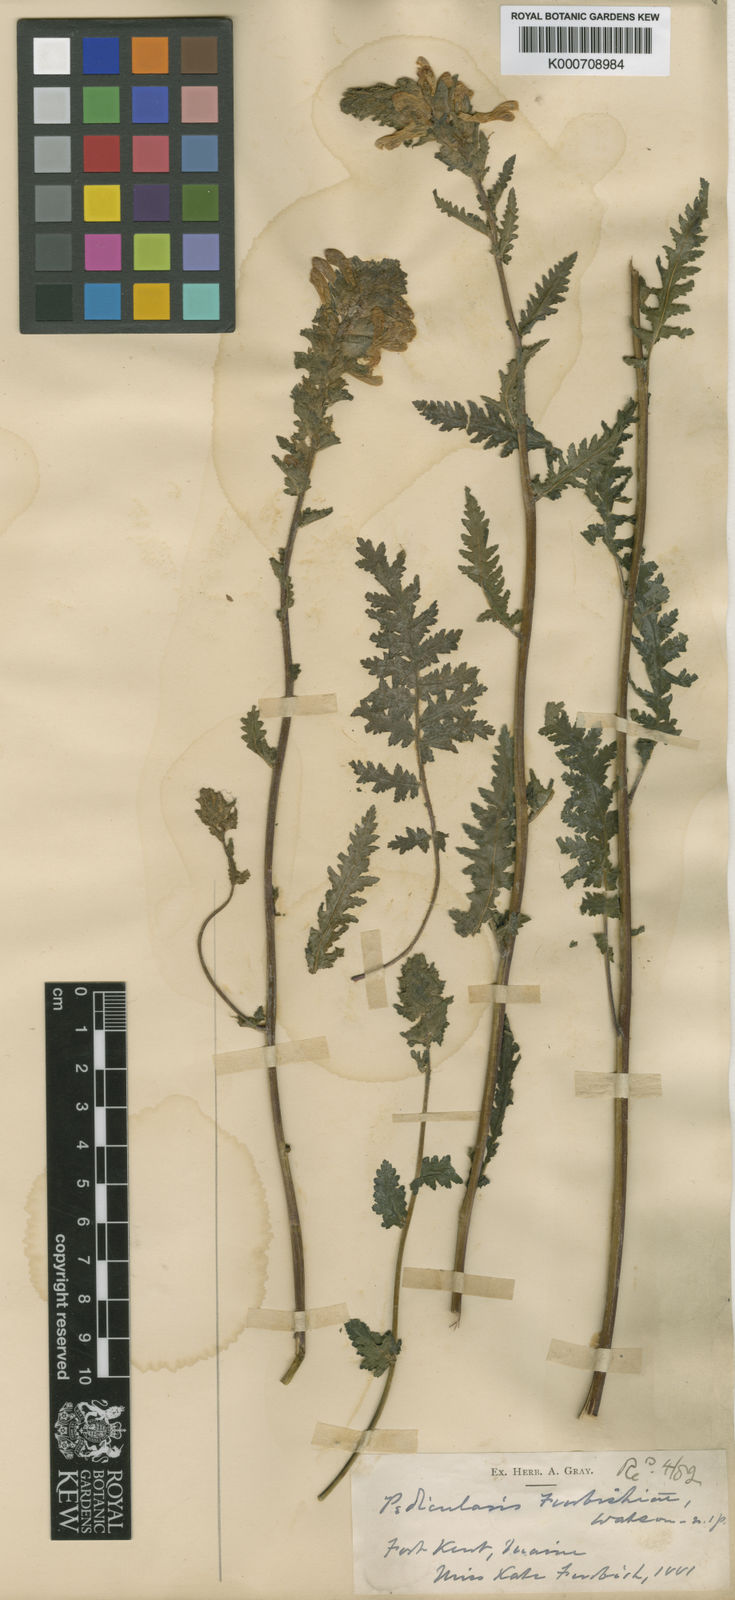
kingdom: Plantae
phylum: Tracheophyta
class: Magnoliopsida
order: Lamiales
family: Orobanchaceae
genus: Pedicularis
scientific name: Pedicularis furbishiae
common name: Furbish's lousewort
